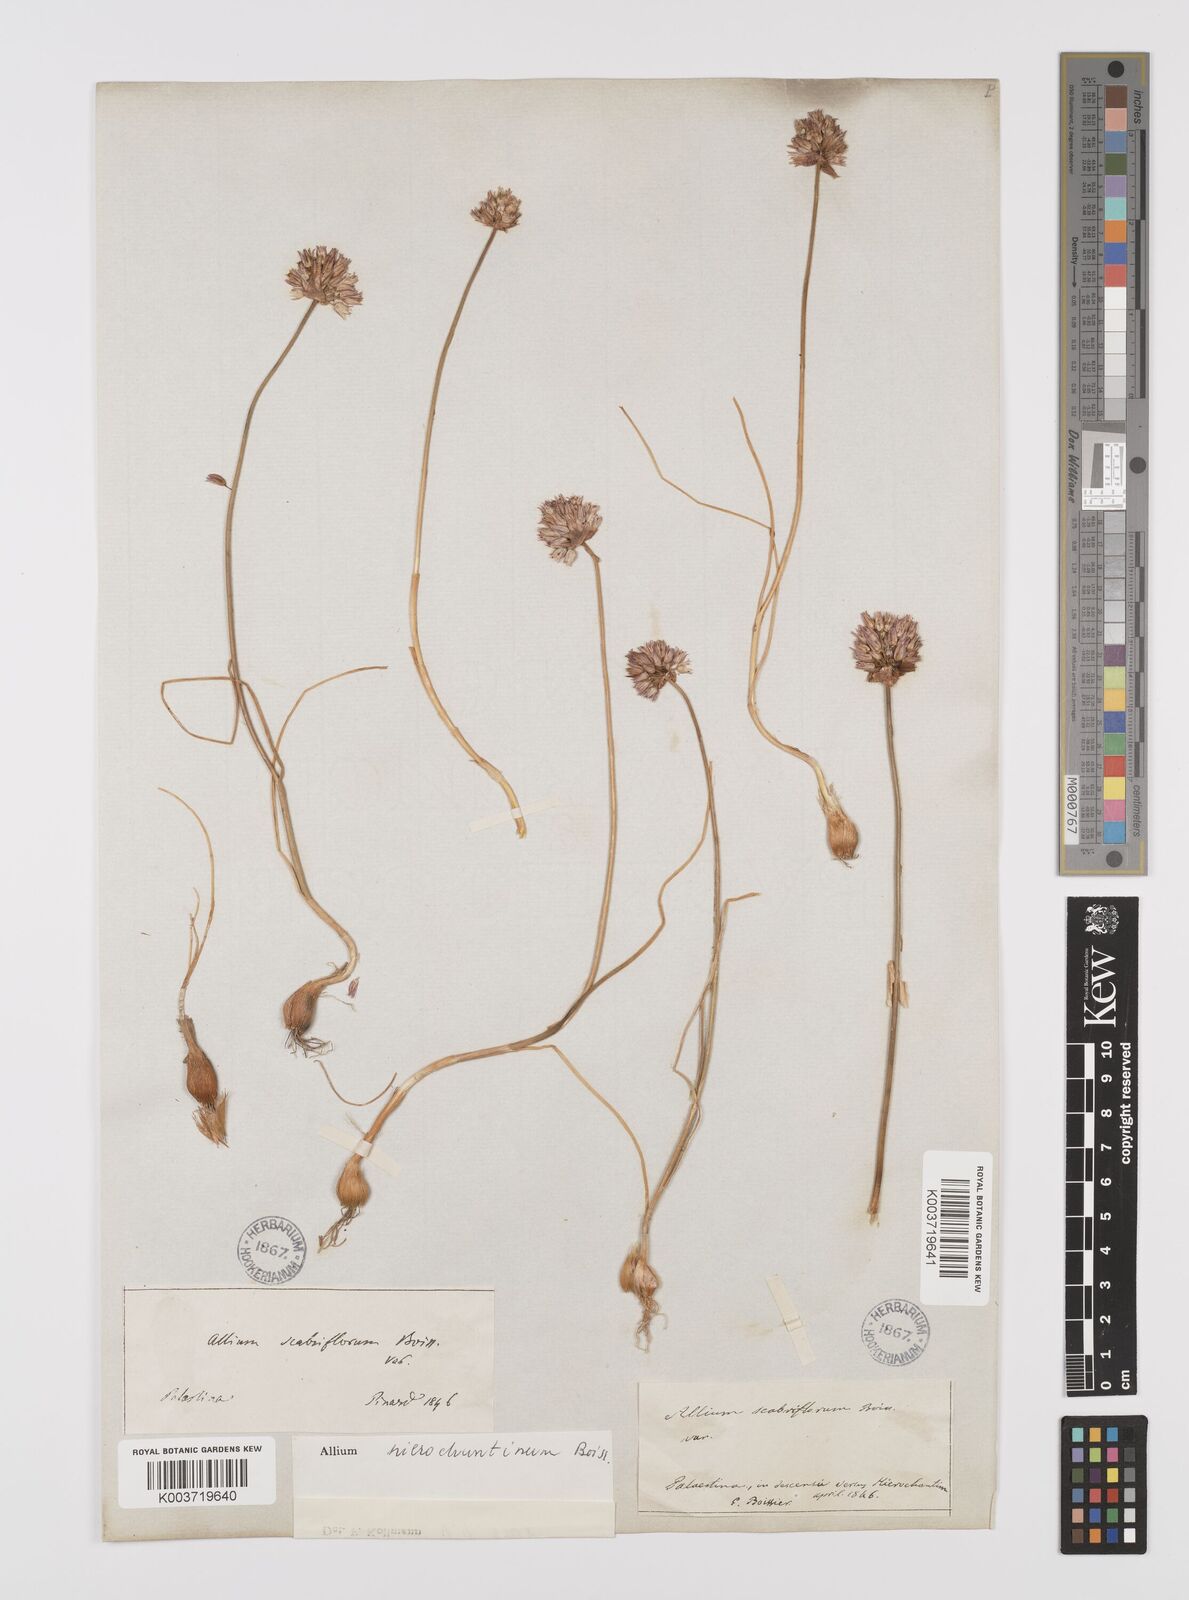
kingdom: Plantae
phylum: Tracheophyta
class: Liliopsida
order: Asparagales
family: Amaryllidaceae
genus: Allium
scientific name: Allium ascalonicum
